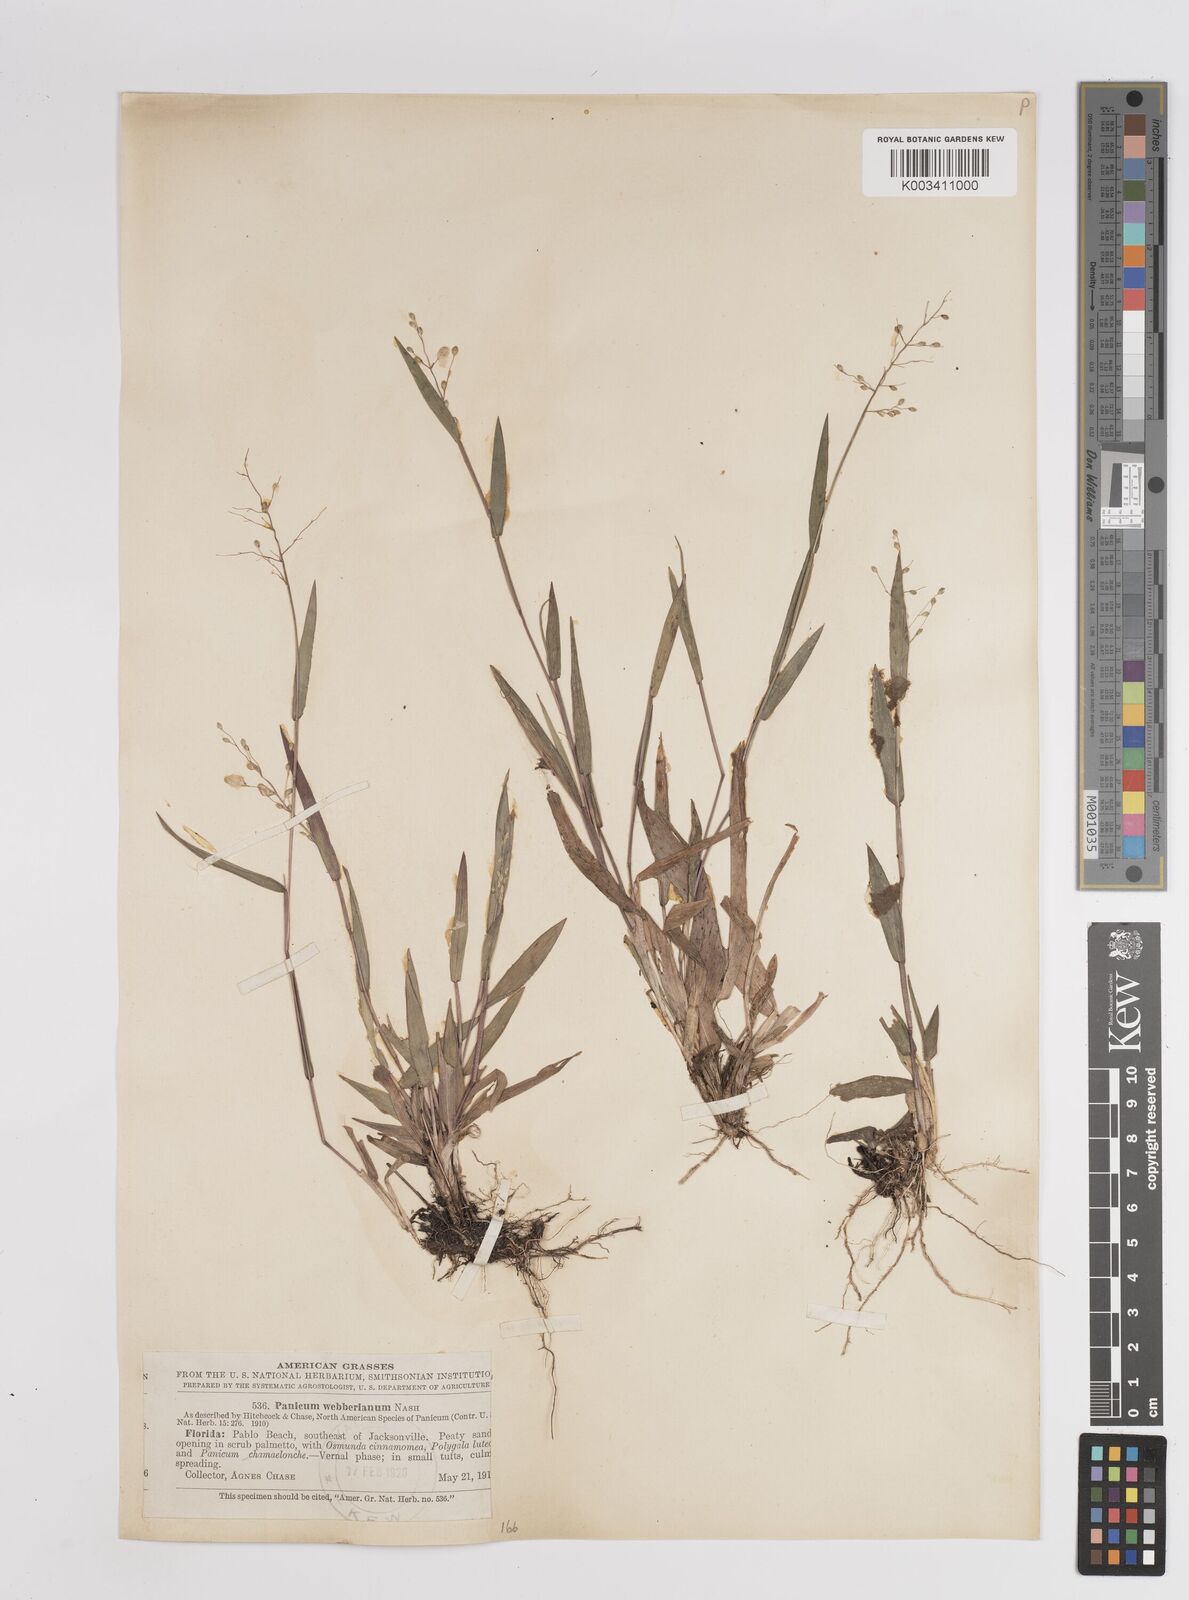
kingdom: Plantae
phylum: Tracheophyta
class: Liliopsida
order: Poales
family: Poaceae
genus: Dichanthelium
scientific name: Dichanthelium webberianum
